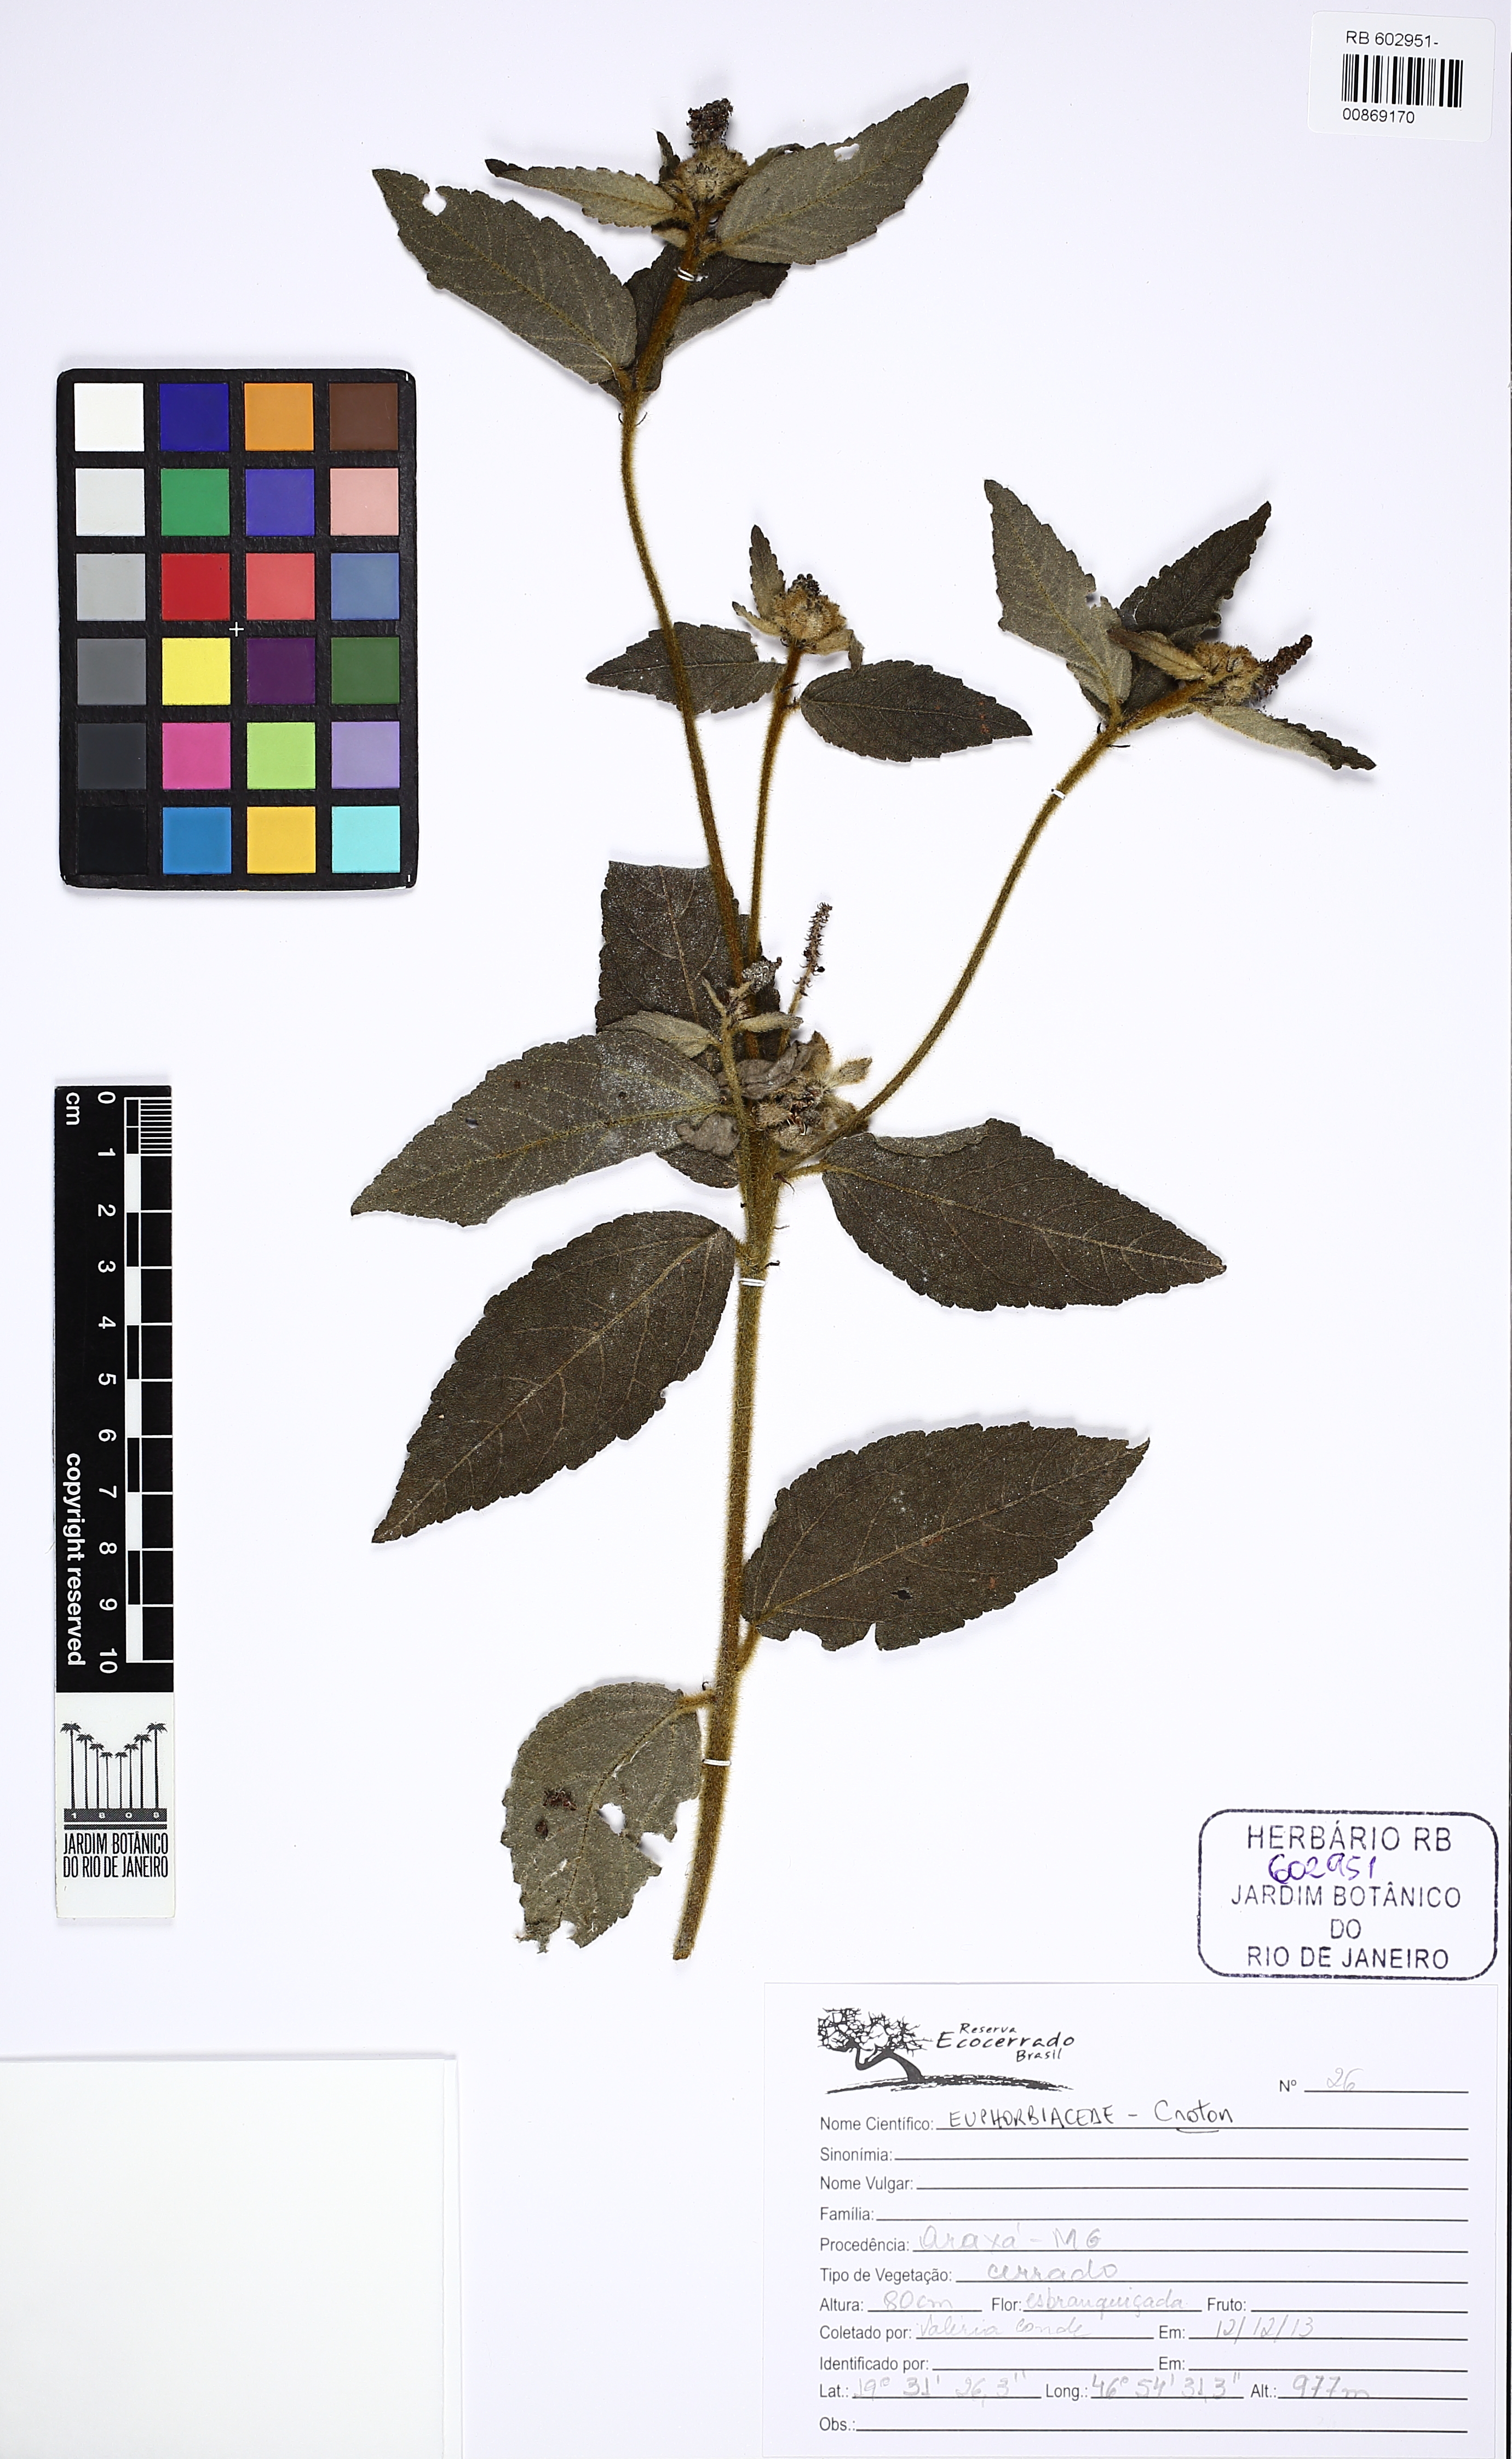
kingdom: Plantae
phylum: Tracheophyta
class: Magnoliopsida
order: Malpighiales
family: Euphorbiaceae
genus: Croton
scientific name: Croton sclerocalyx
